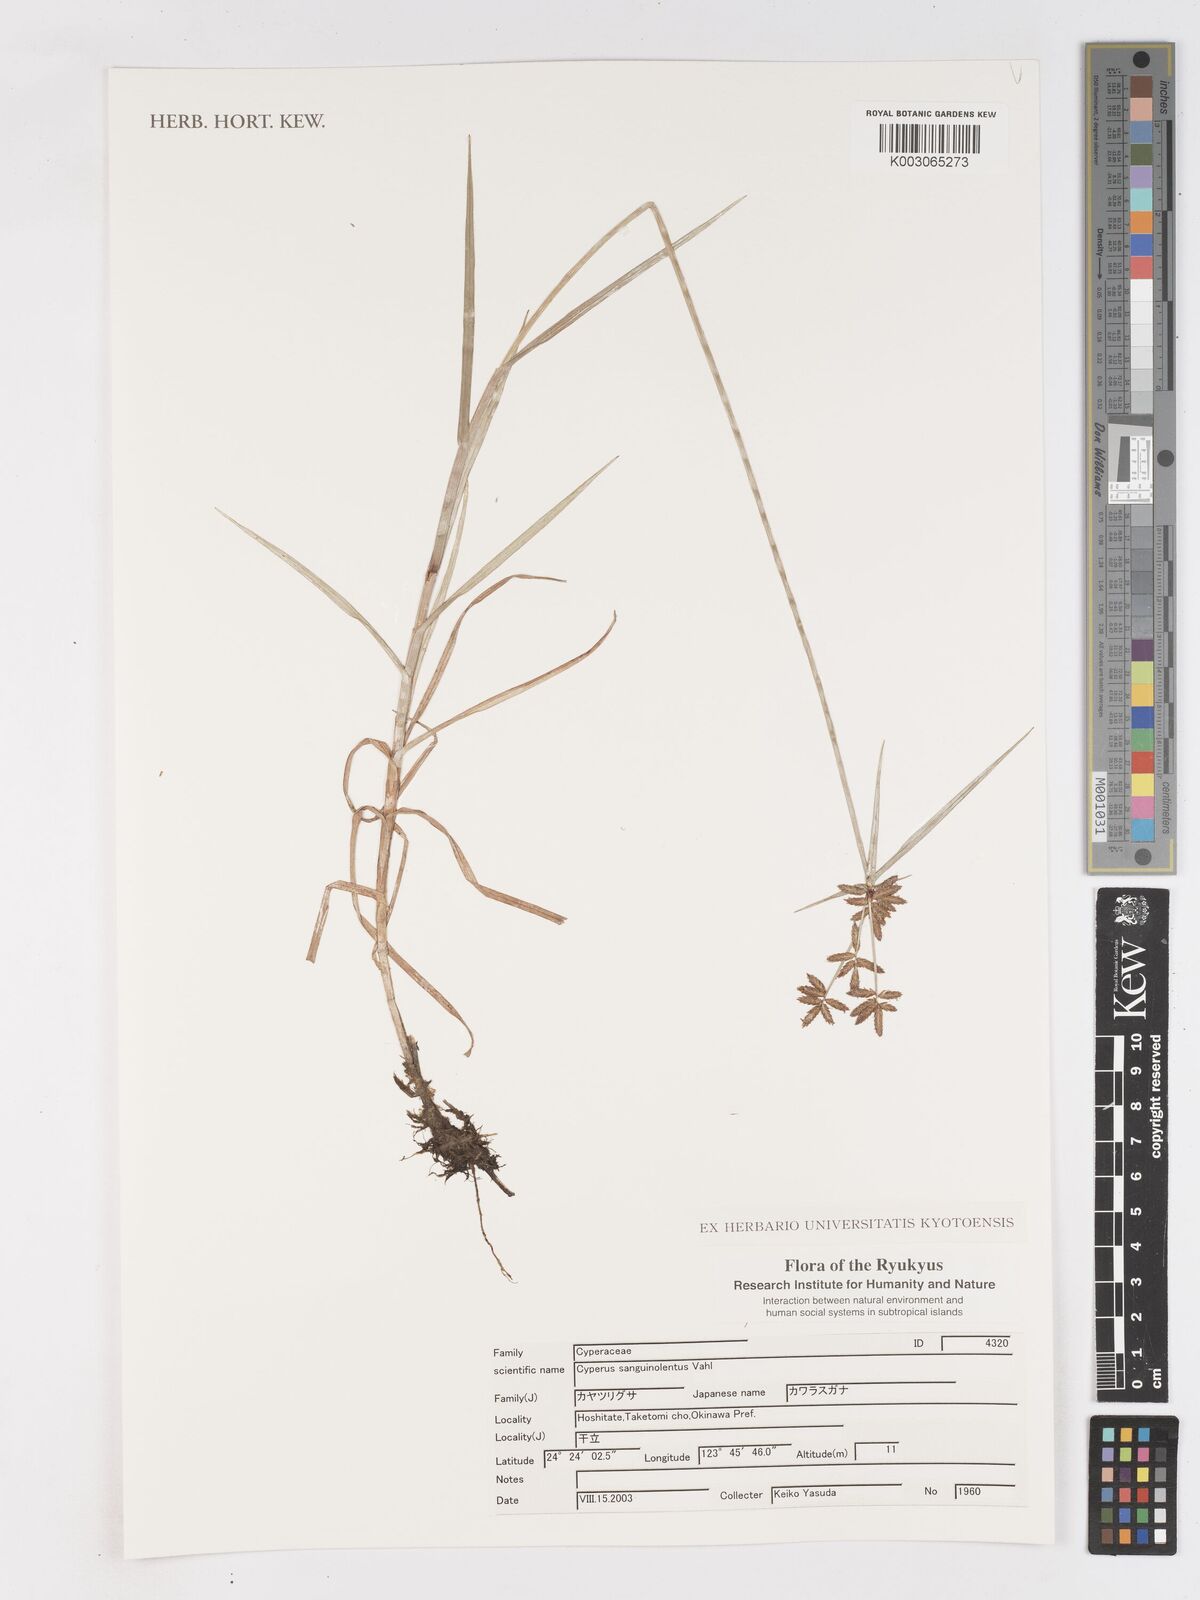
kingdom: Plantae
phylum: Tracheophyta
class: Liliopsida
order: Poales
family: Cyperaceae
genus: Cyperus
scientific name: Cyperus sanguinolentus
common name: Purpleglume flatsedge
